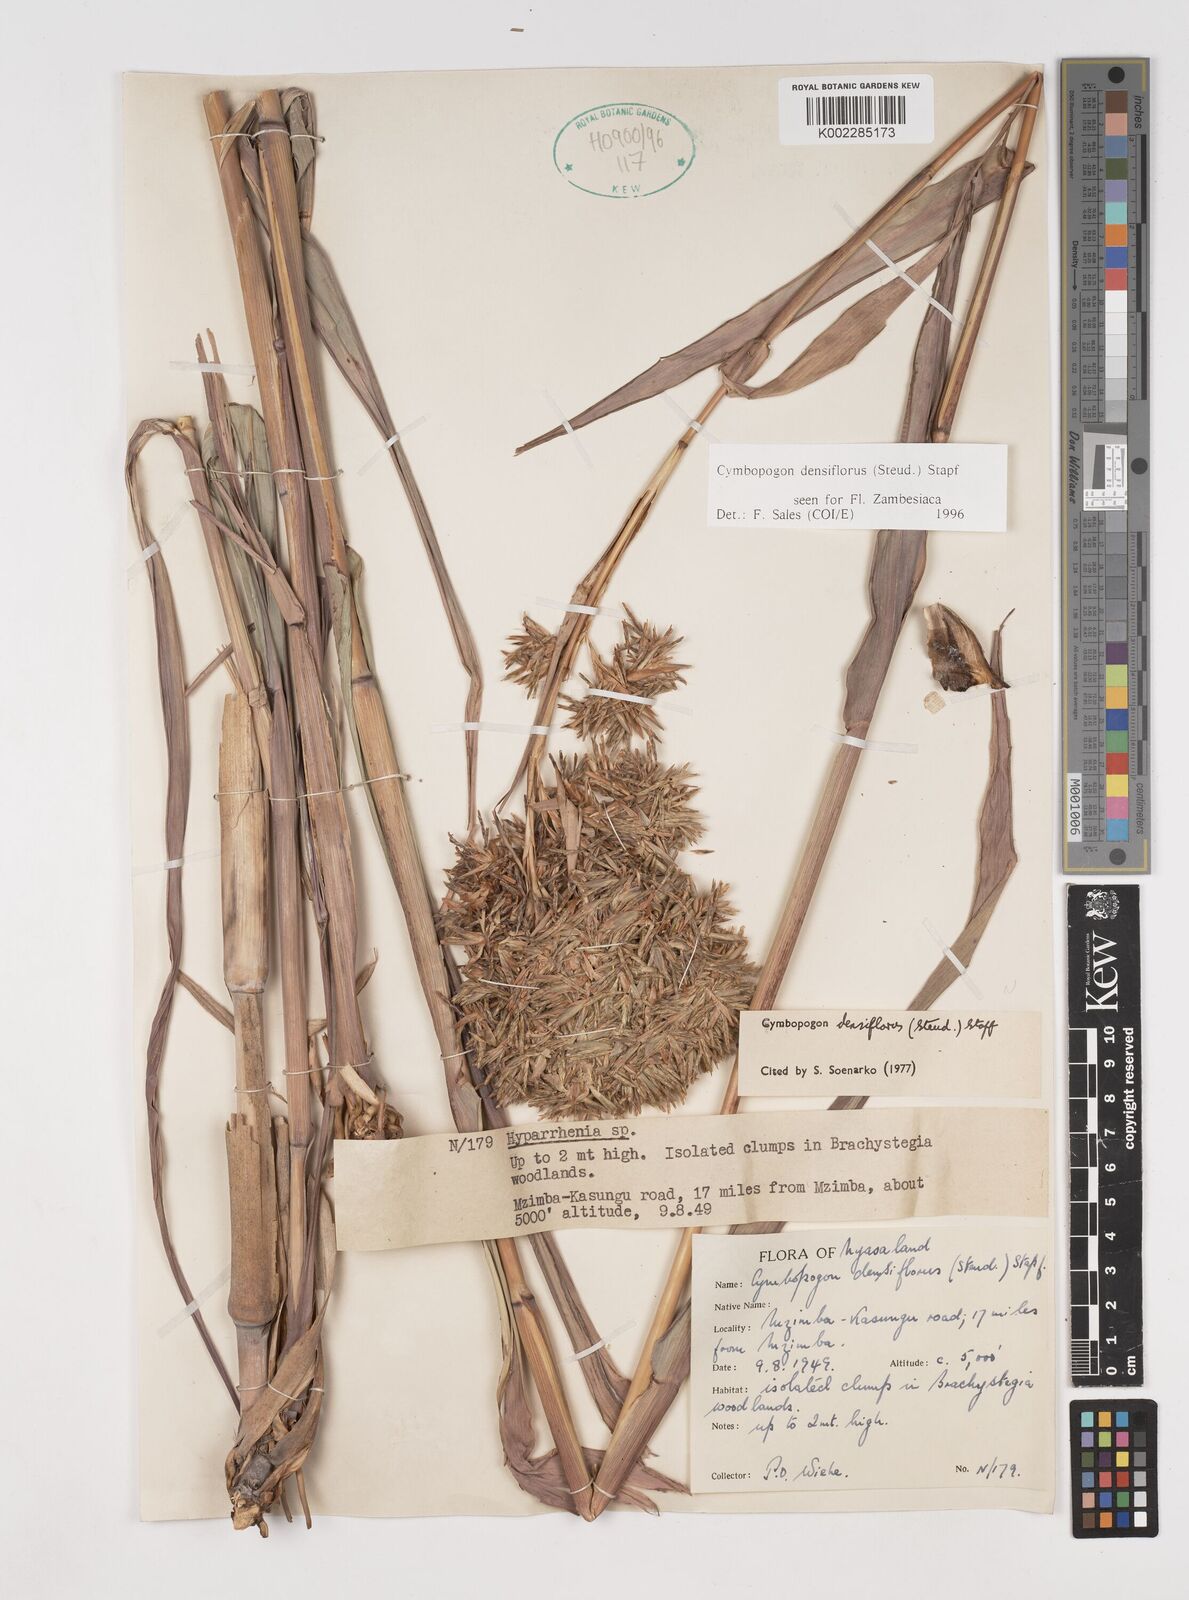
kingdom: Plantae
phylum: Tracheophyta
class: Liliopsida
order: Poales
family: Poaceae
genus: Cymbopogon
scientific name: Cymbopogon densiflorus
